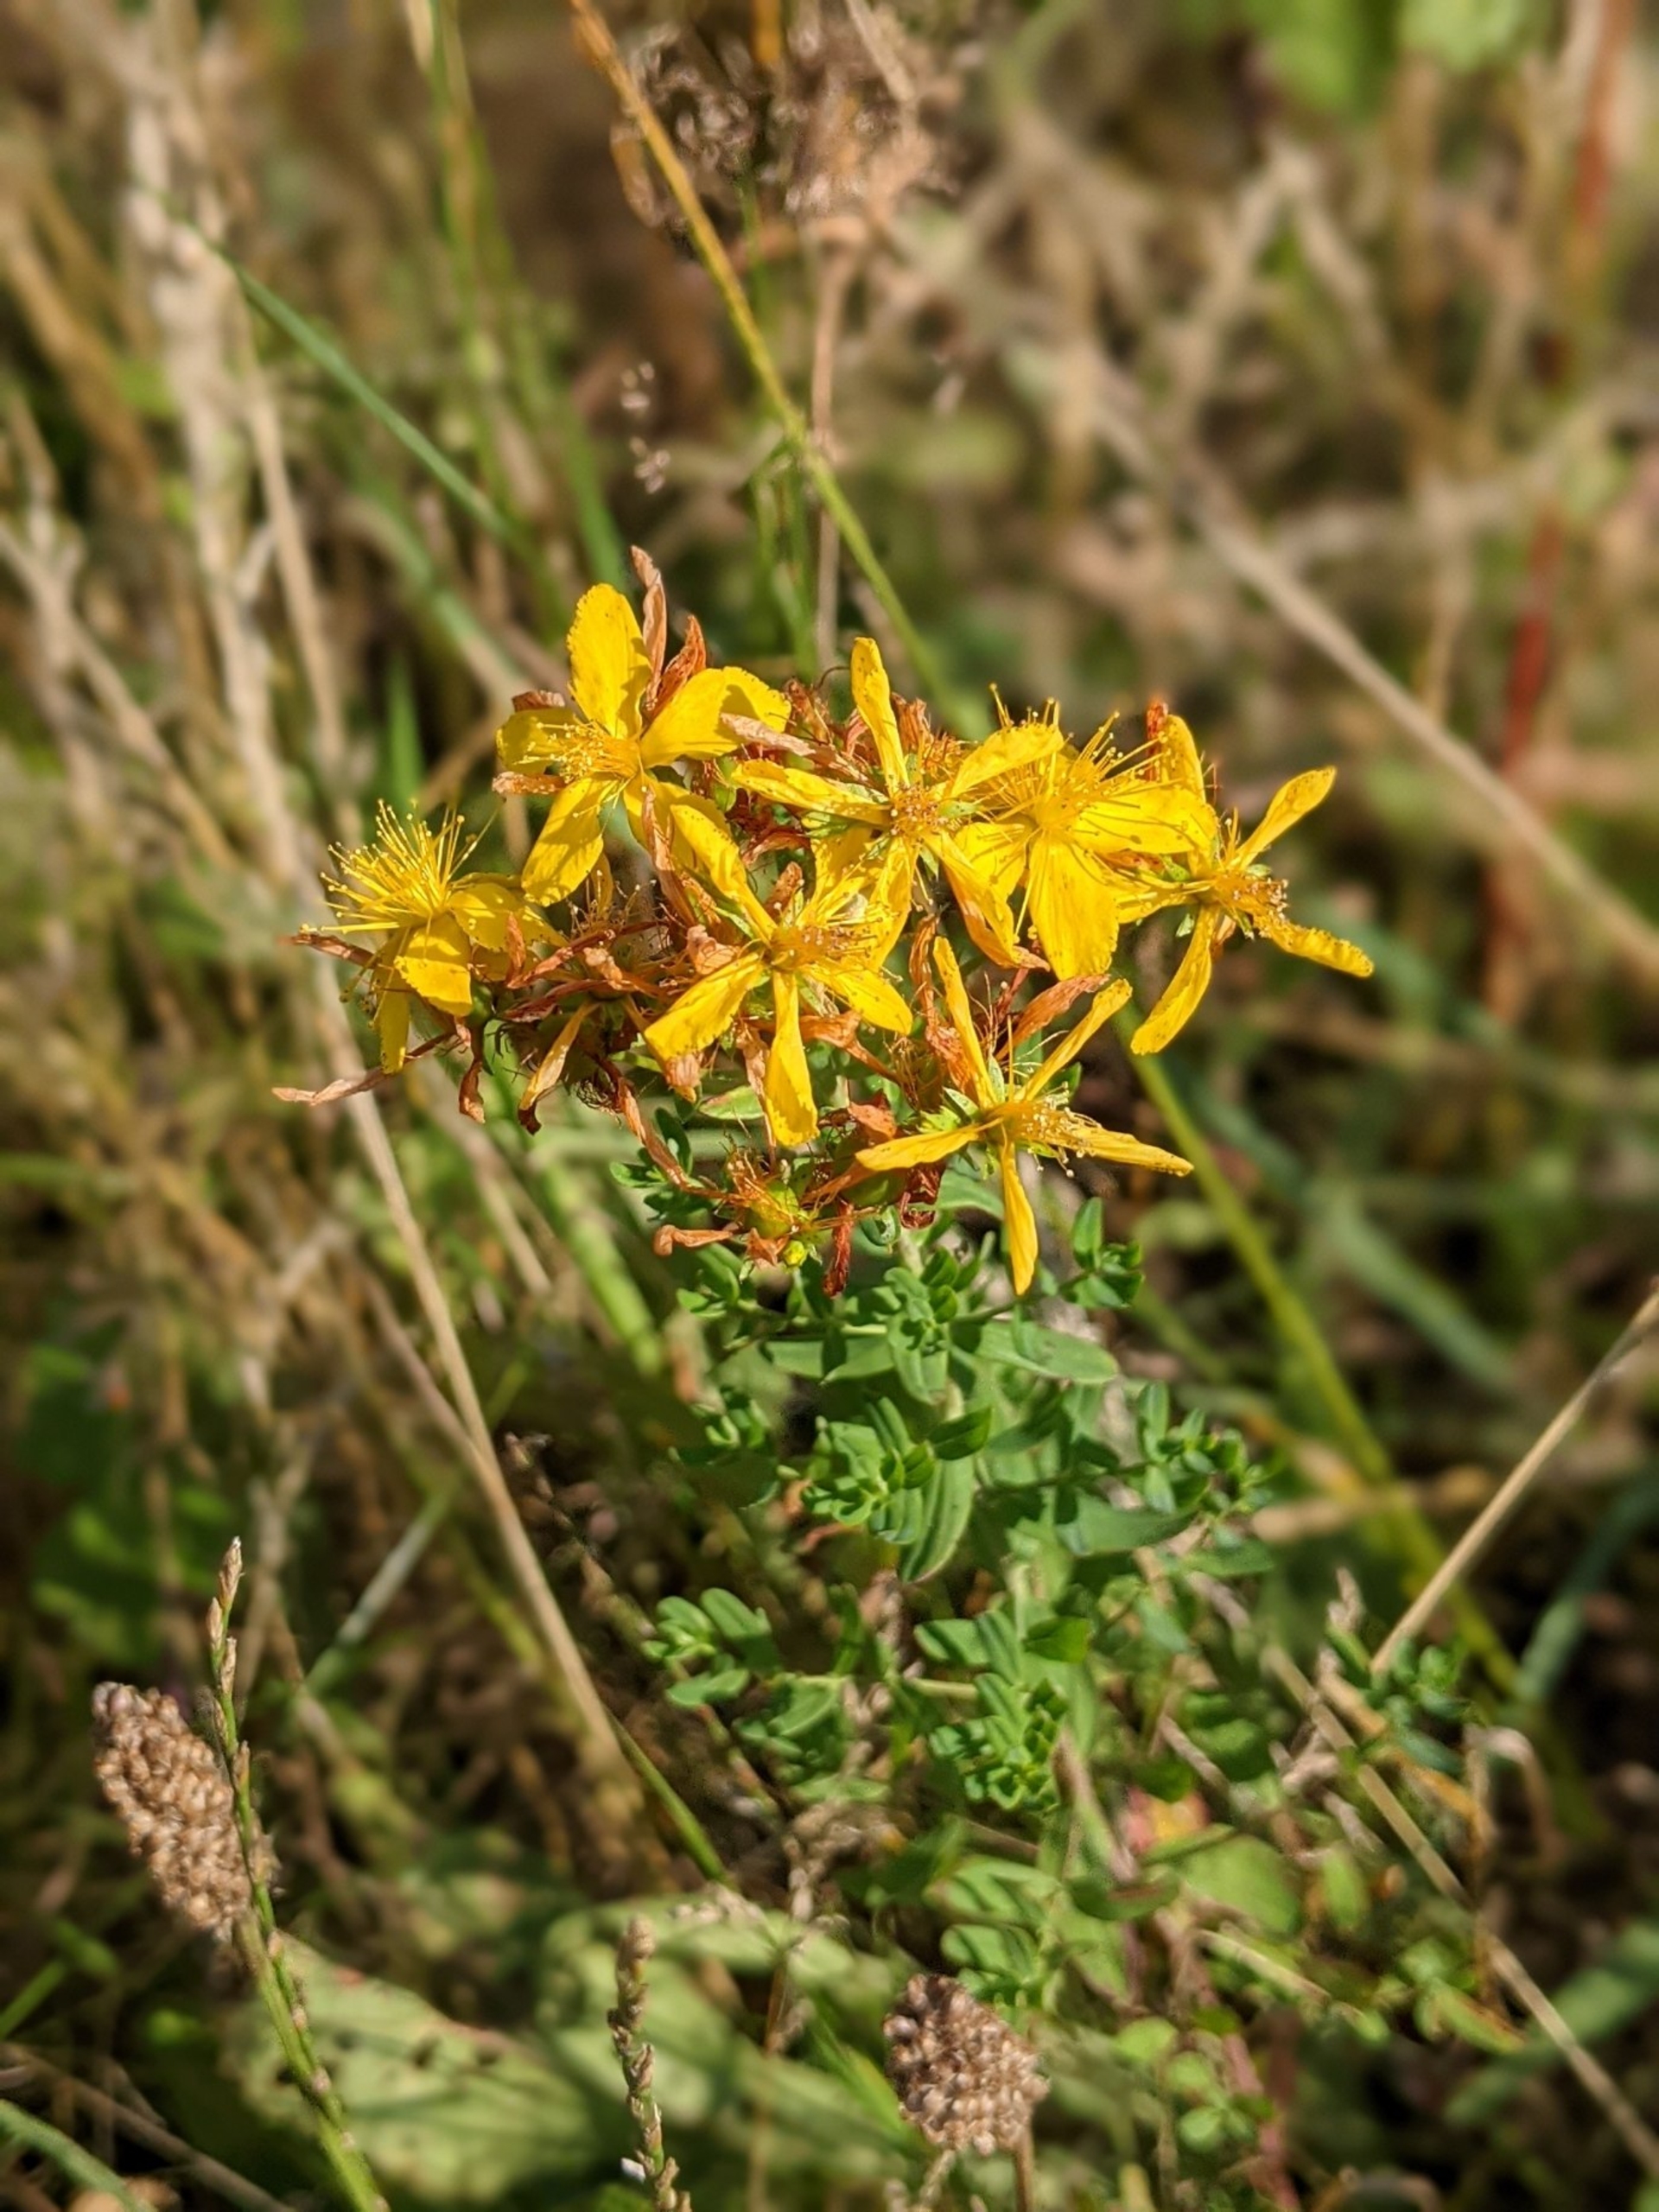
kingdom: Plantae
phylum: Tracheophyta
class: Magnoliopsida
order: Malpighiales
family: Hypericaceae
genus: Hypericum
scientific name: Hypericum perforatum
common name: Prikbladet perikon
